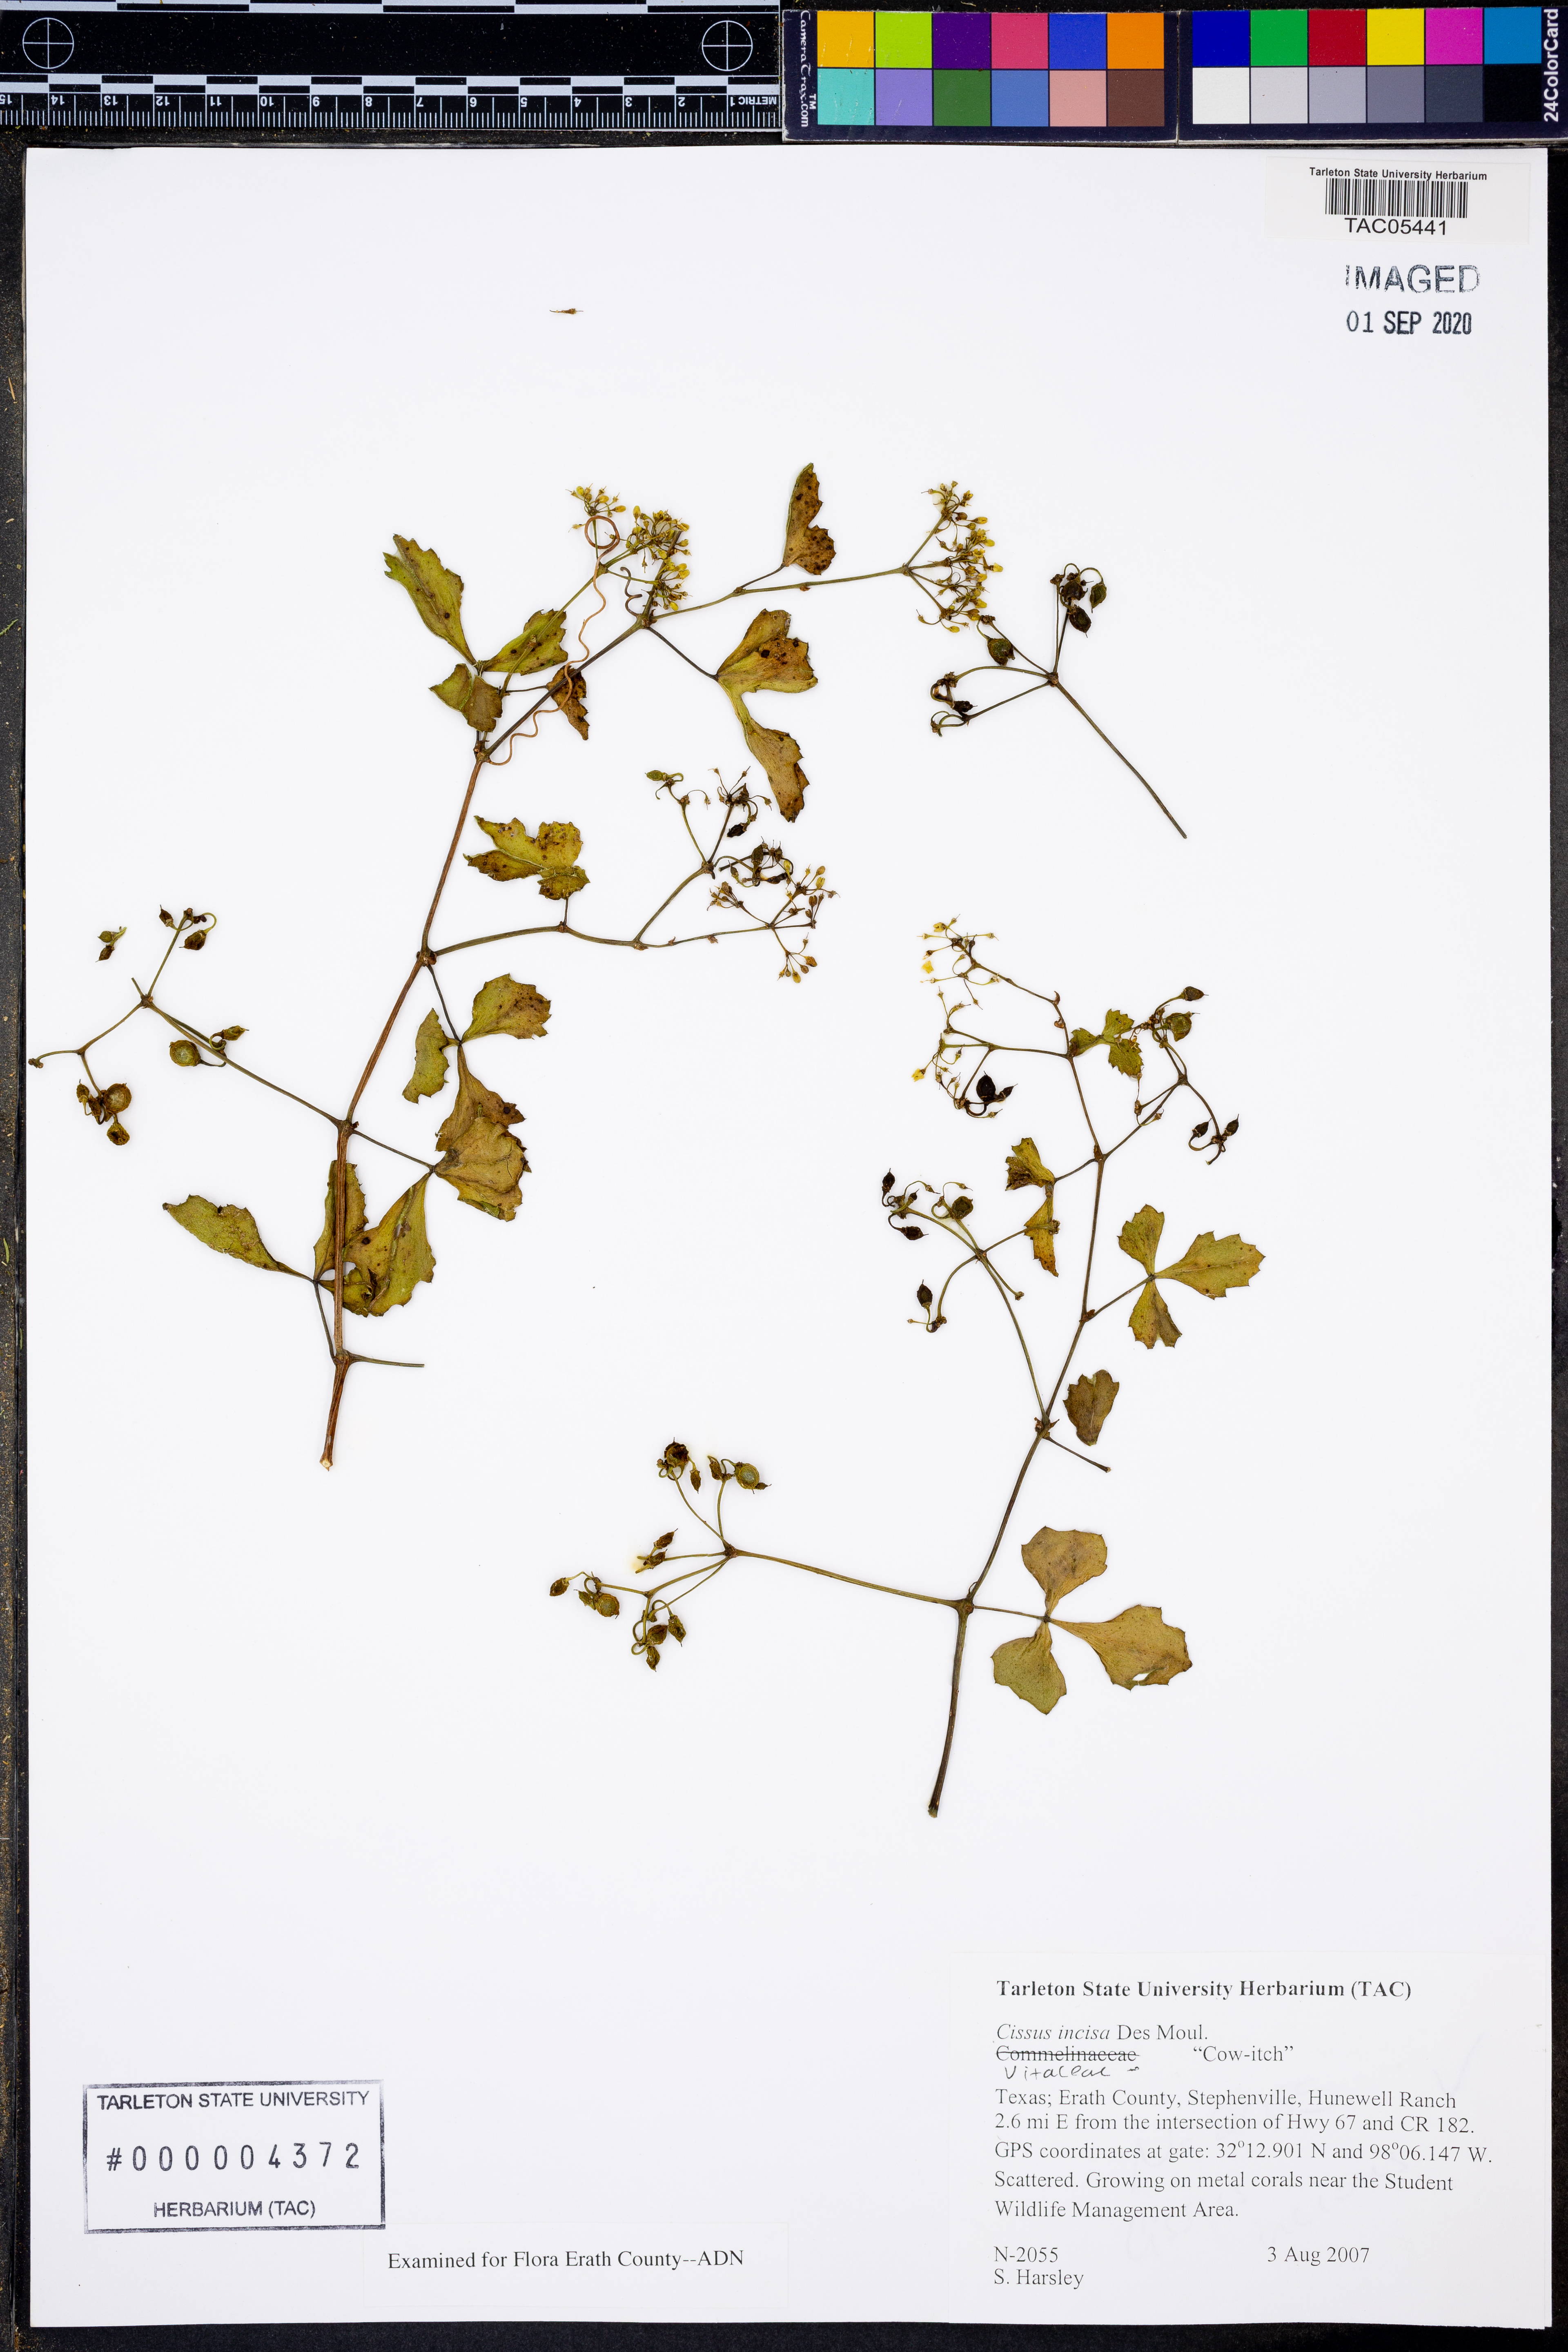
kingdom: Plantae
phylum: Tracheophyta
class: Magnoliopsida
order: Vitales
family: Vitaceae
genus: Cissus
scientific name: Cissus trifoliata
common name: Vine-sorrel
